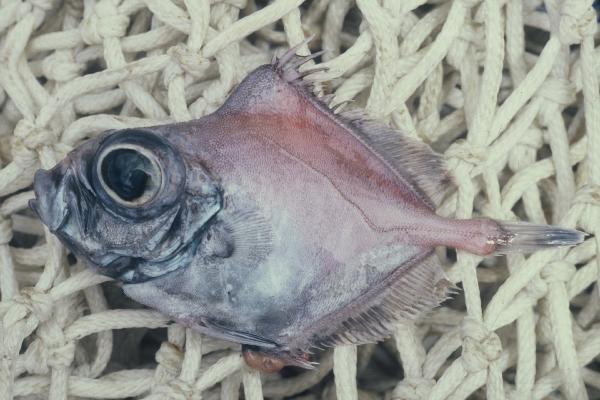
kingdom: Animalia
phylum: Chordata
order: Zeiformes
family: Oreosomatidae
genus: Oreosoma
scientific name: Oreosoma atlanticum
